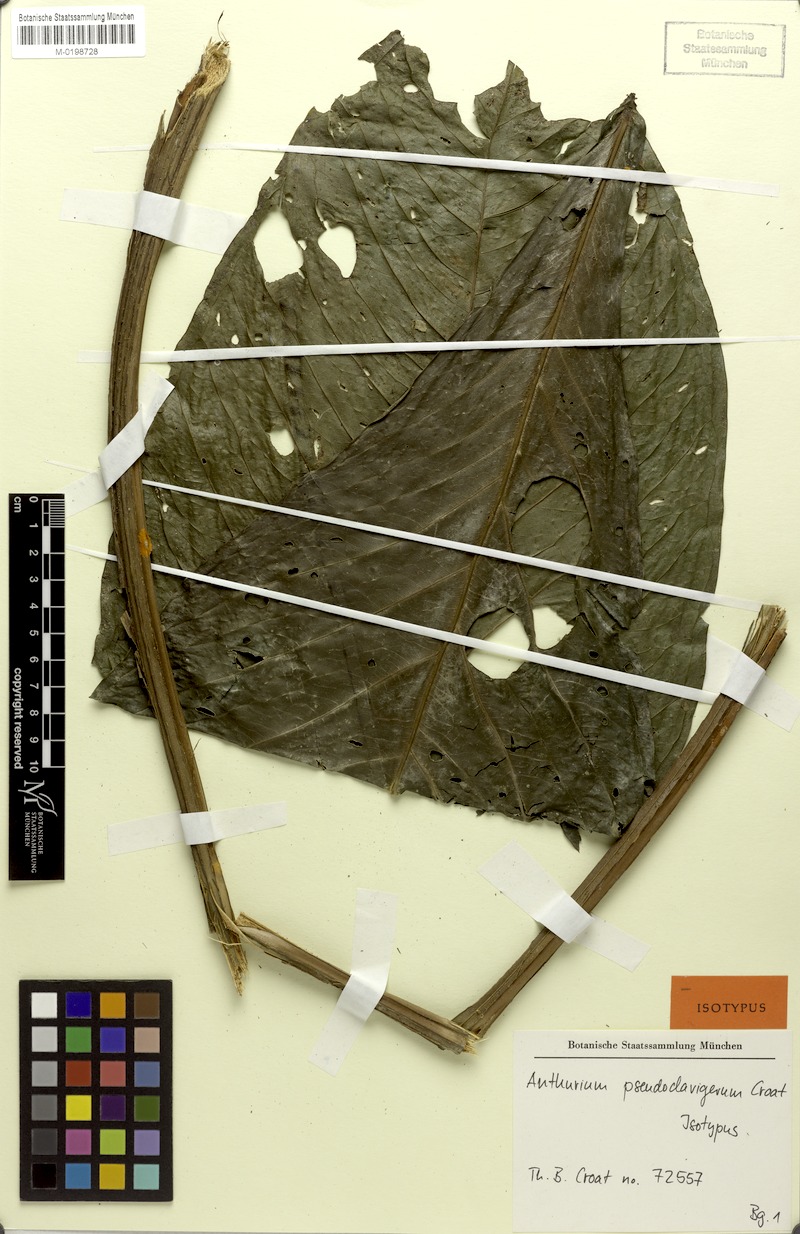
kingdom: Plantae
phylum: Tracheophyta
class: Liliopsida
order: Alismatales
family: Araceae
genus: Anthurium
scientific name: Anthurium pseudoclavigerum
